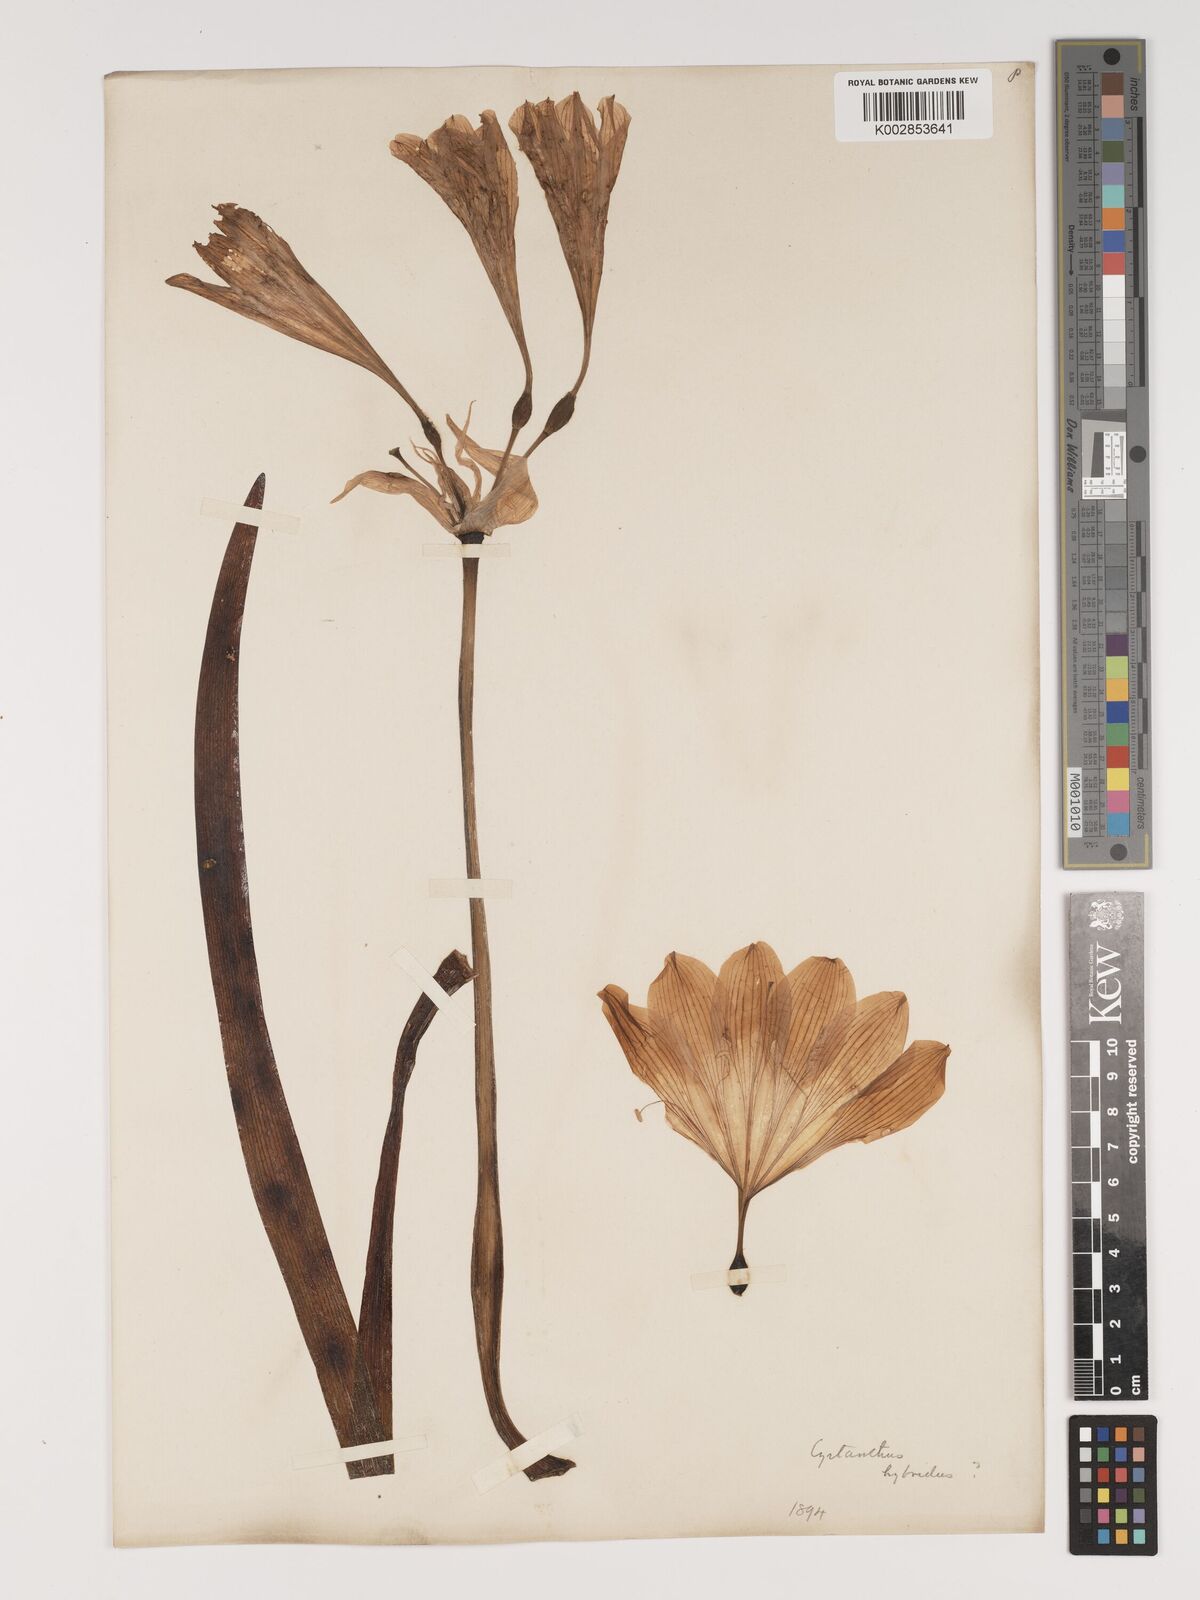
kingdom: Plantae
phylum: Tracheophyta
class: Liliopsida
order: Asparagales
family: Amaryllidaceae
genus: Cyrtanthus
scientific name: Cyrtanthus hybridus
